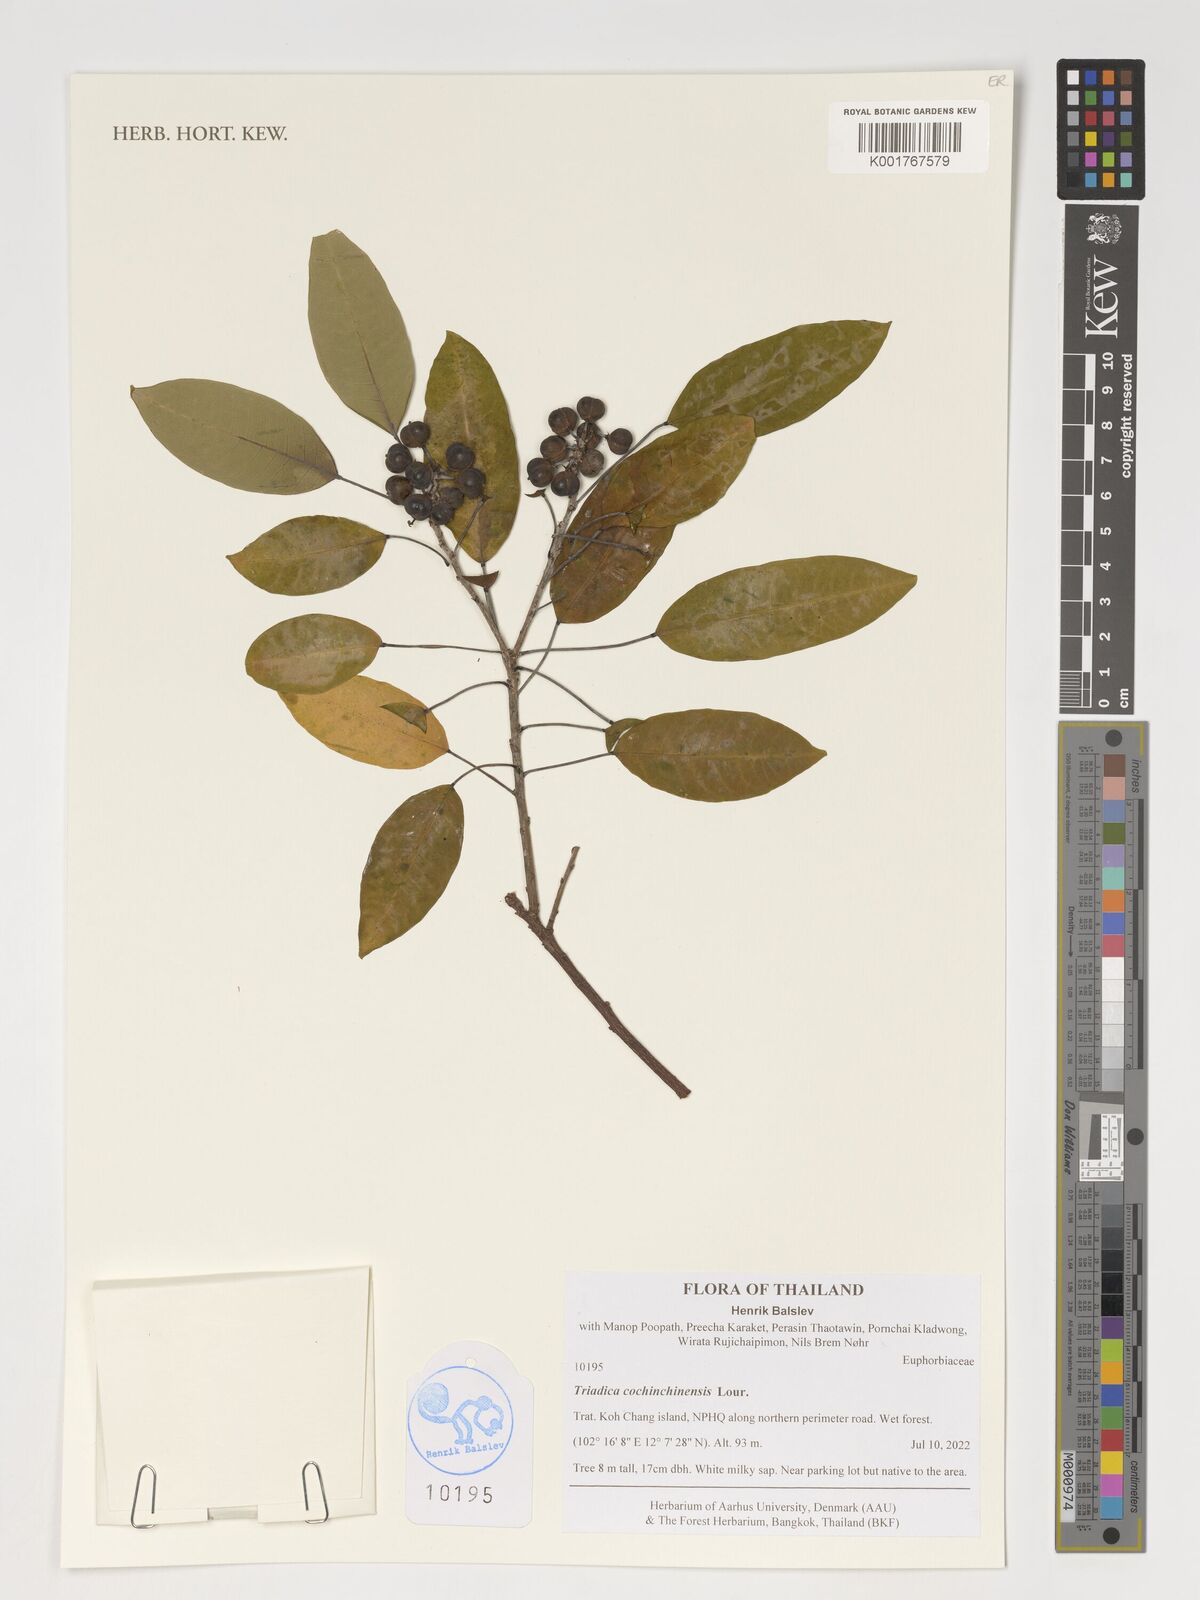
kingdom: Plantae
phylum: Tracheophyta
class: Magnoliopsida
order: Malpighiales
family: Euphorbiaceae
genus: Triadica
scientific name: Triadica cochinchinensis
